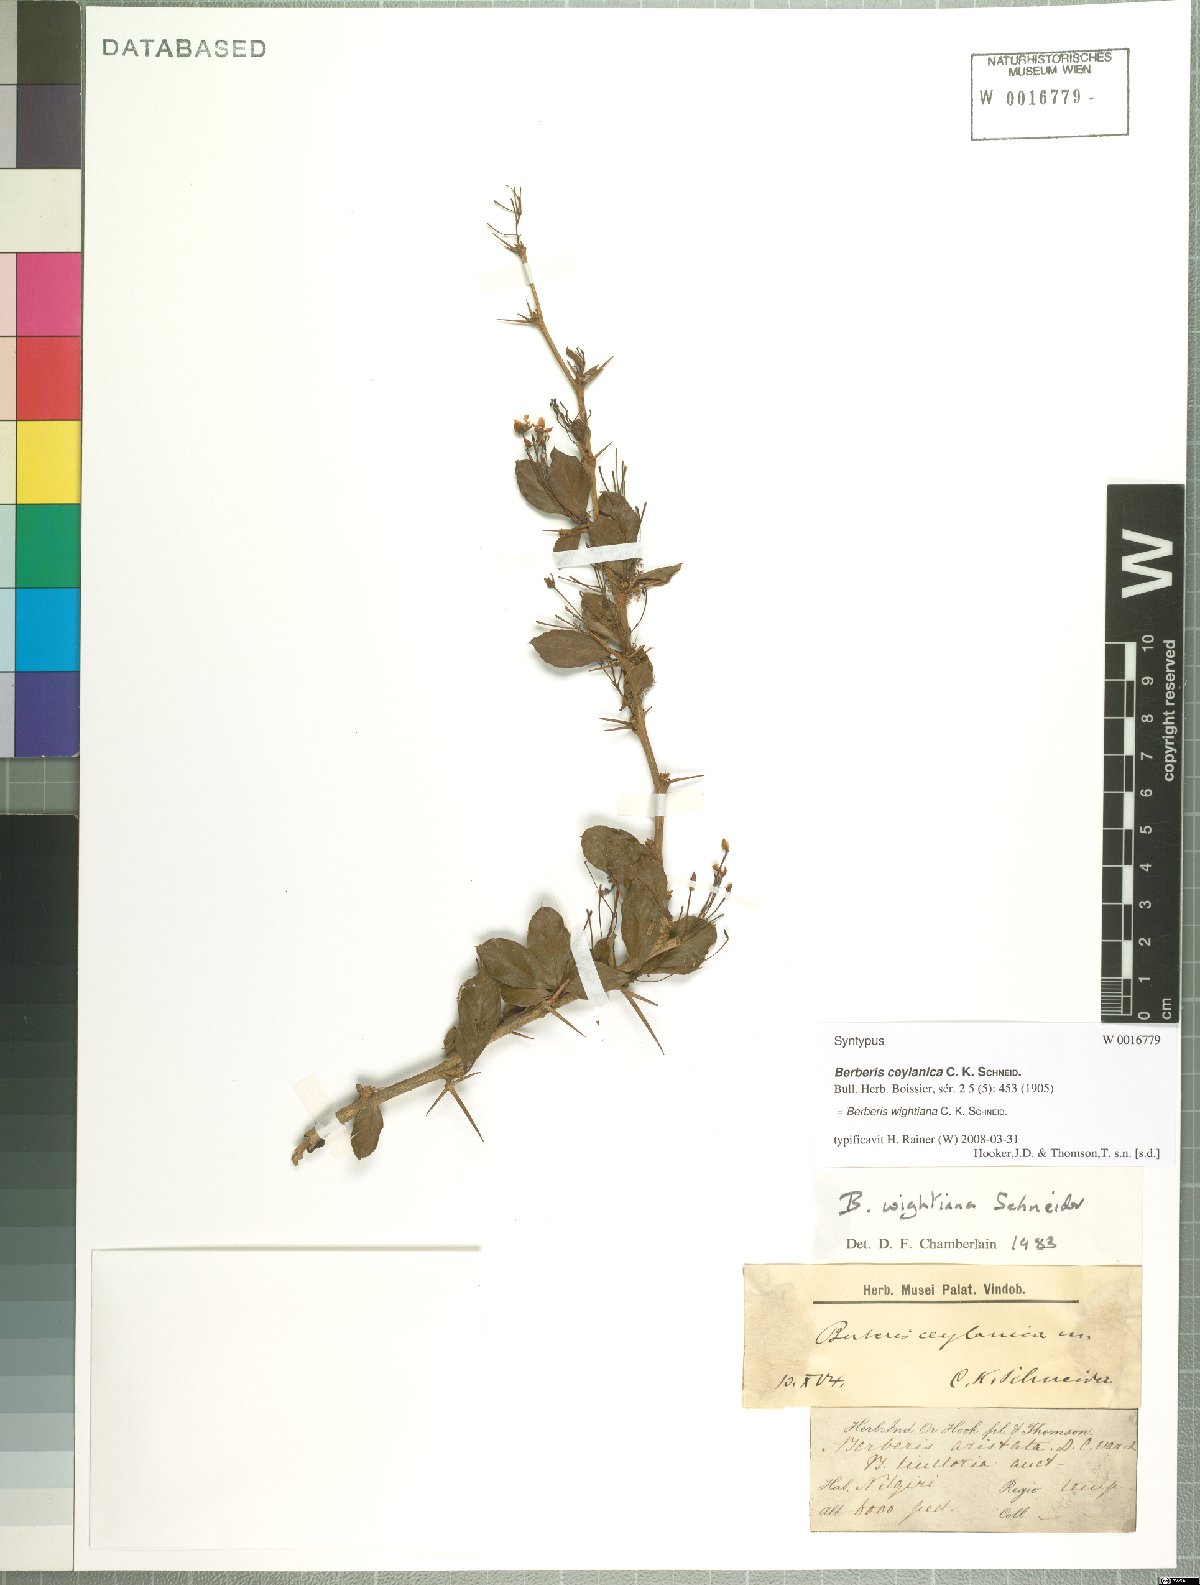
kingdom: Plantae
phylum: Tracheophyta
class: Magnoliopsida
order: Ranunculales
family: Berberidaceae
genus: Berberis
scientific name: Berberis wightiana
